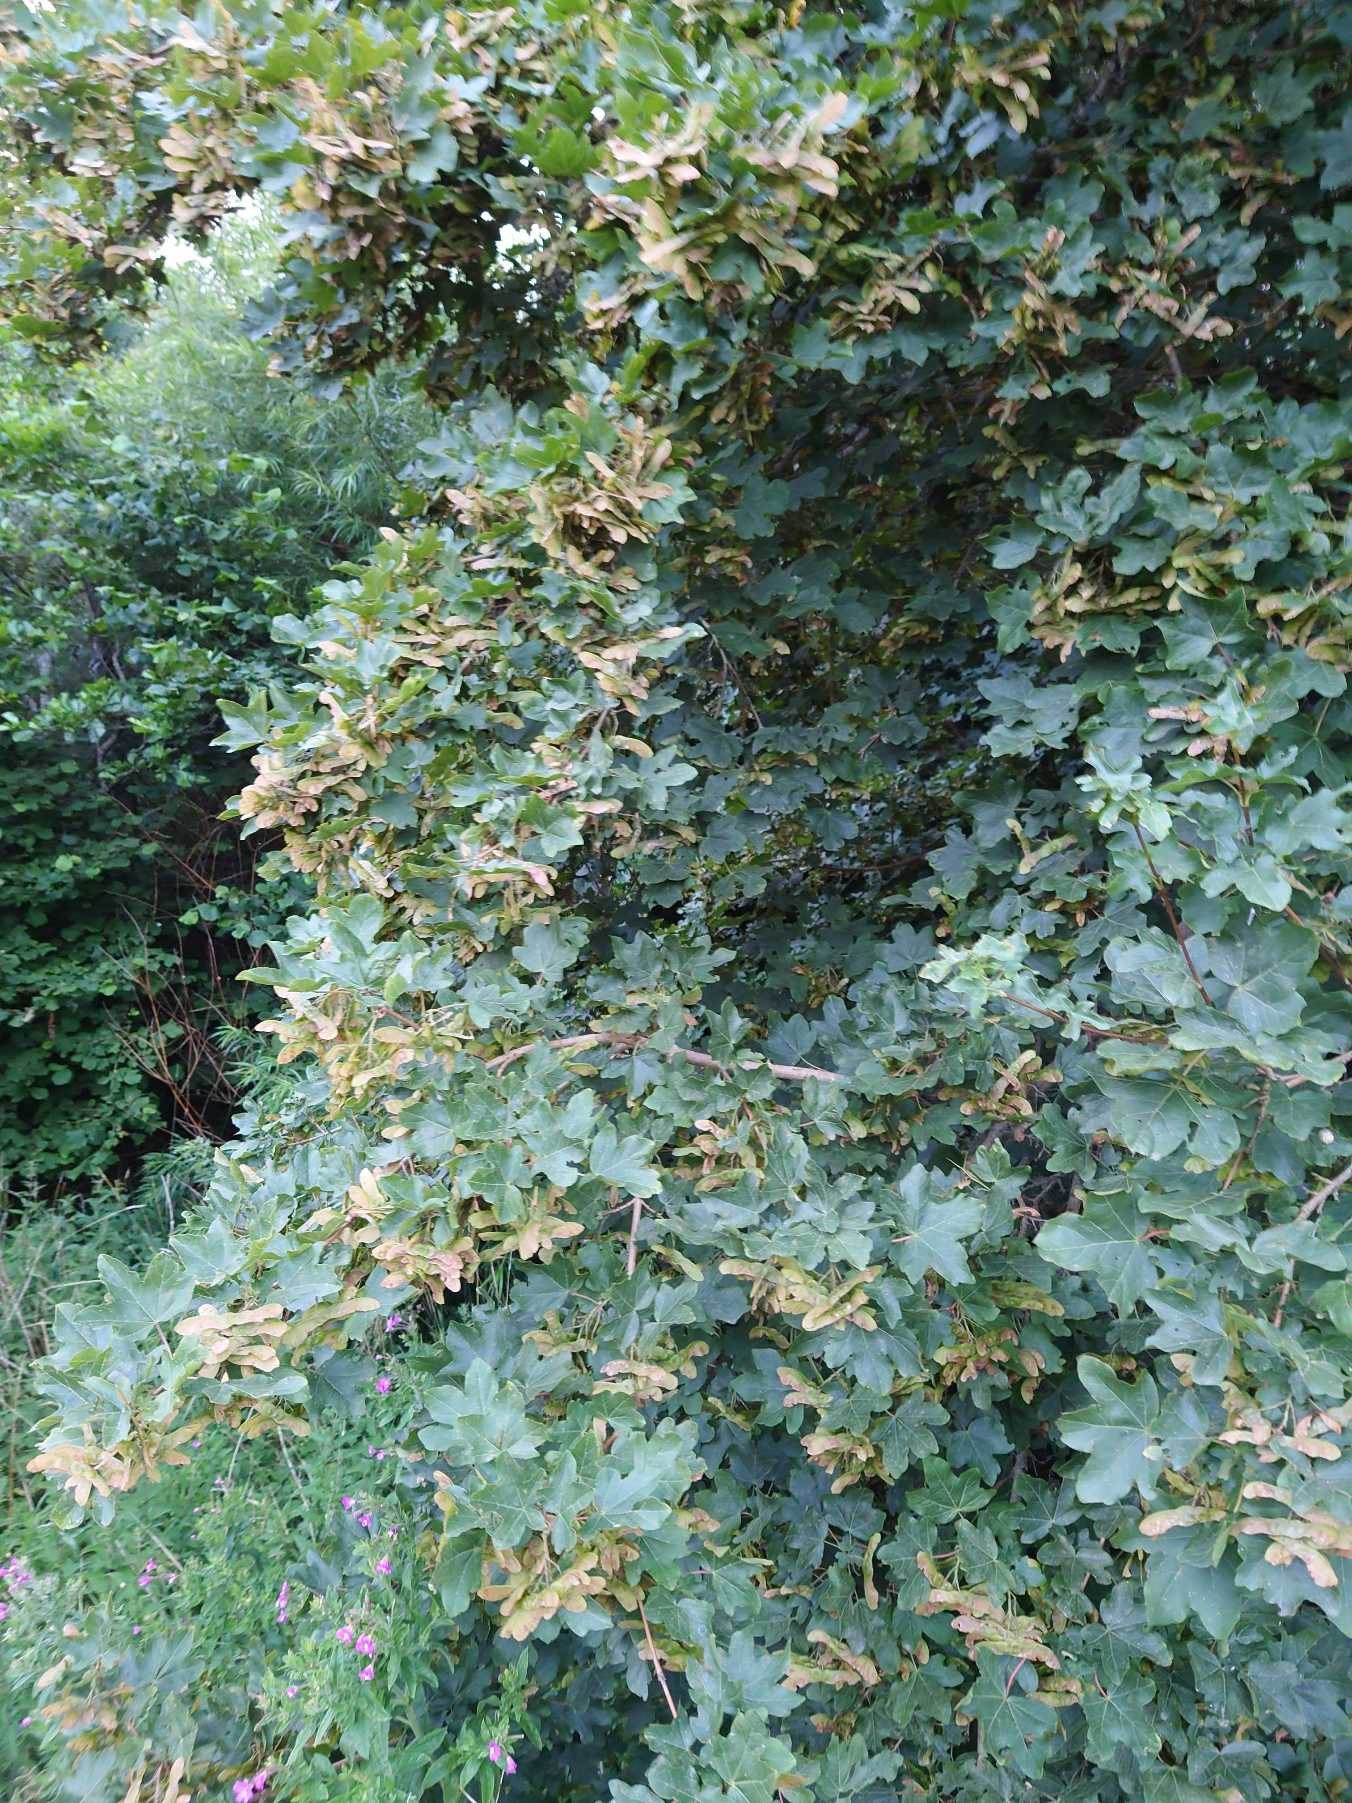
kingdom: Plantae
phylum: Tracheophyta
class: Magnoliopsida
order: Sapindales
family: Sapindaceae
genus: Acer
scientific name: Acer campestre
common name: Navr
